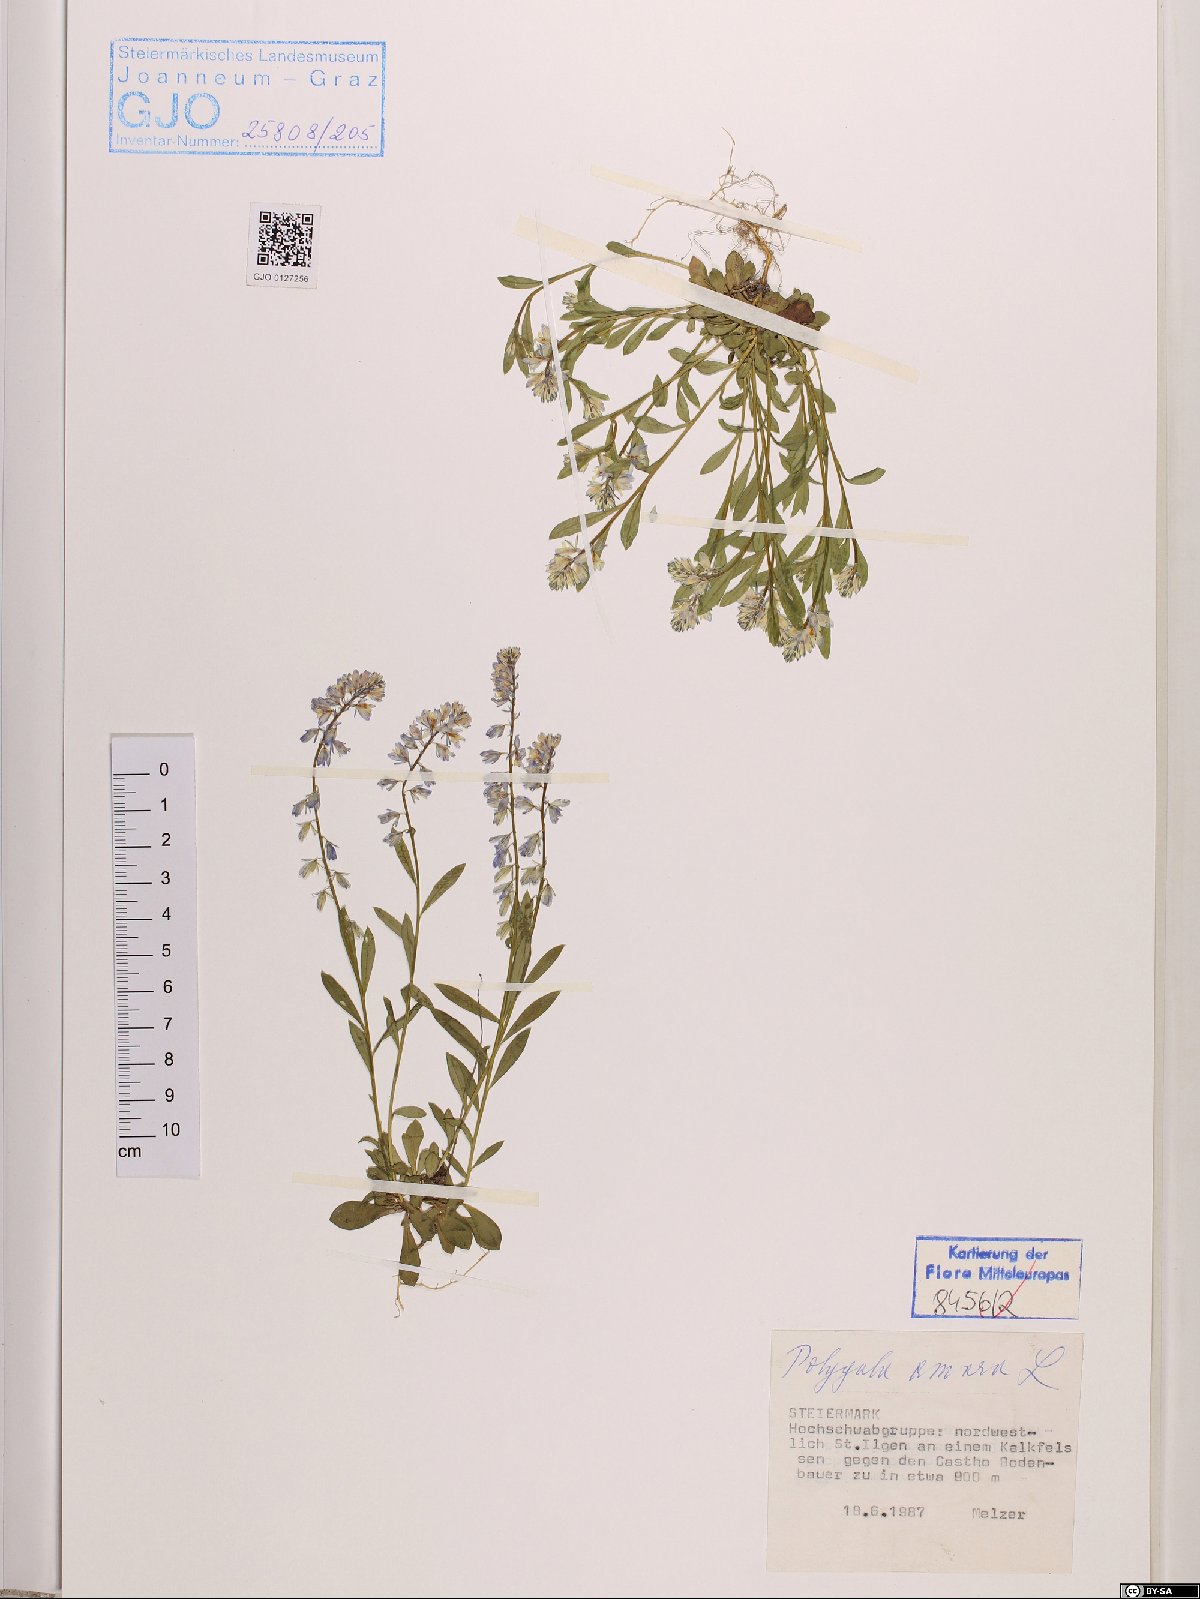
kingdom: Plantae
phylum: Tracheophyta
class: Magnoliopsida
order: Fabales
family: Polygalaceae
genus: Polygala
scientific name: Polygala amara
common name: Milkwort
